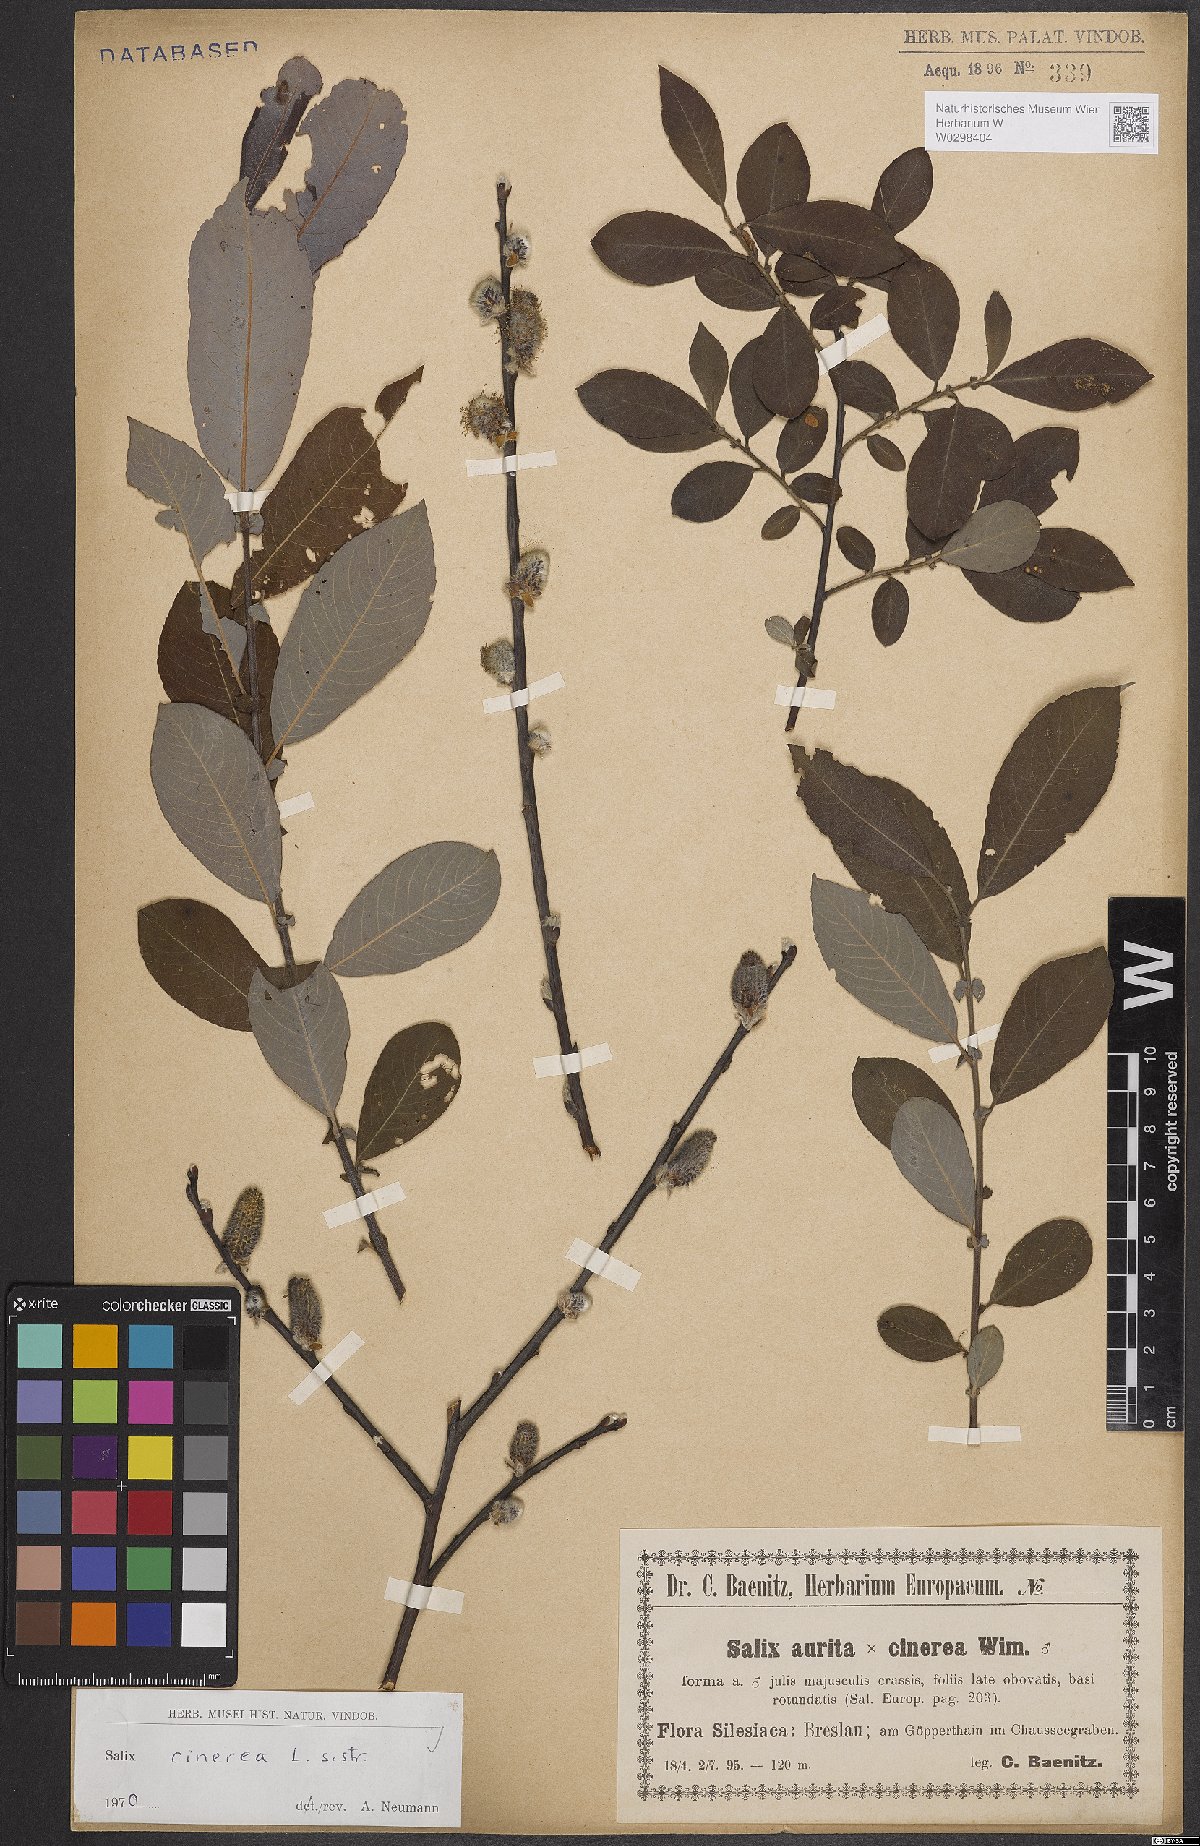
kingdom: Plantae
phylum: Tracheophyta
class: Magnoliopsida
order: Malpighiales
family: Salicaceae
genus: Salix
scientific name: Salix cinerea
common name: Common sallow
